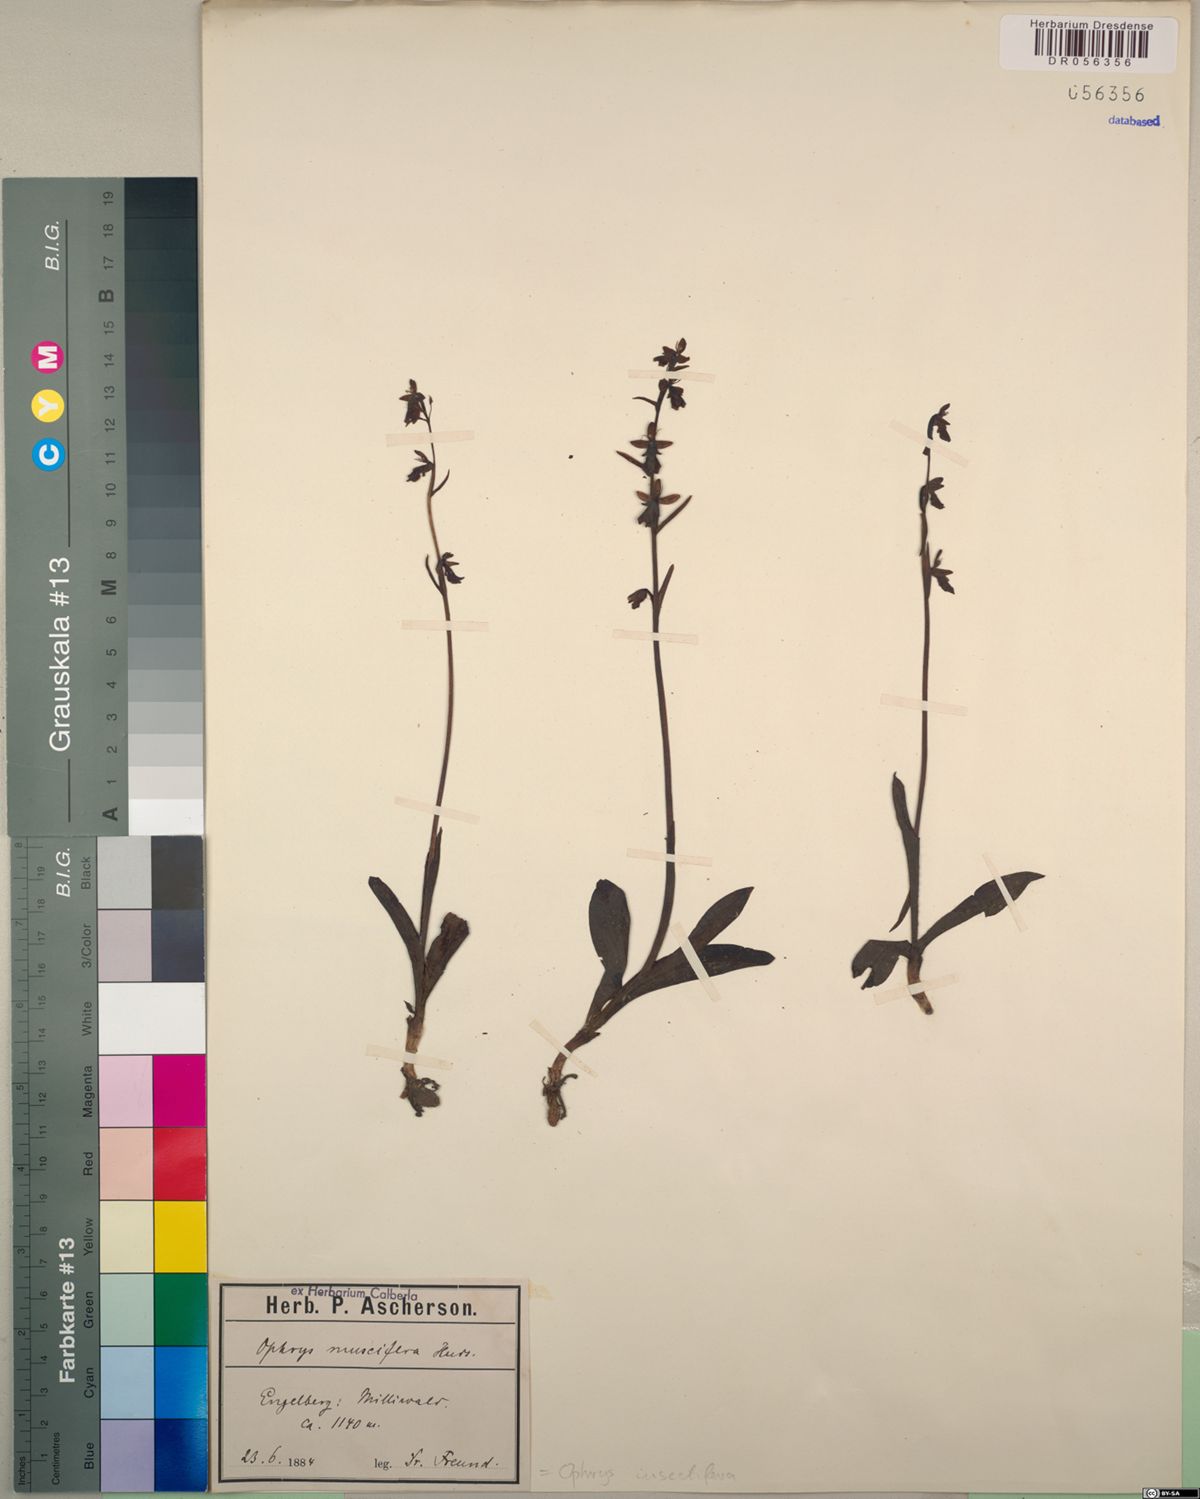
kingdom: Plantae
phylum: Tracheophyta
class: Liliopsida
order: Asparagales
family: Orchidaceae
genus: Ophrys
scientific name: Ophrys insectifera
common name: Fly orchid
